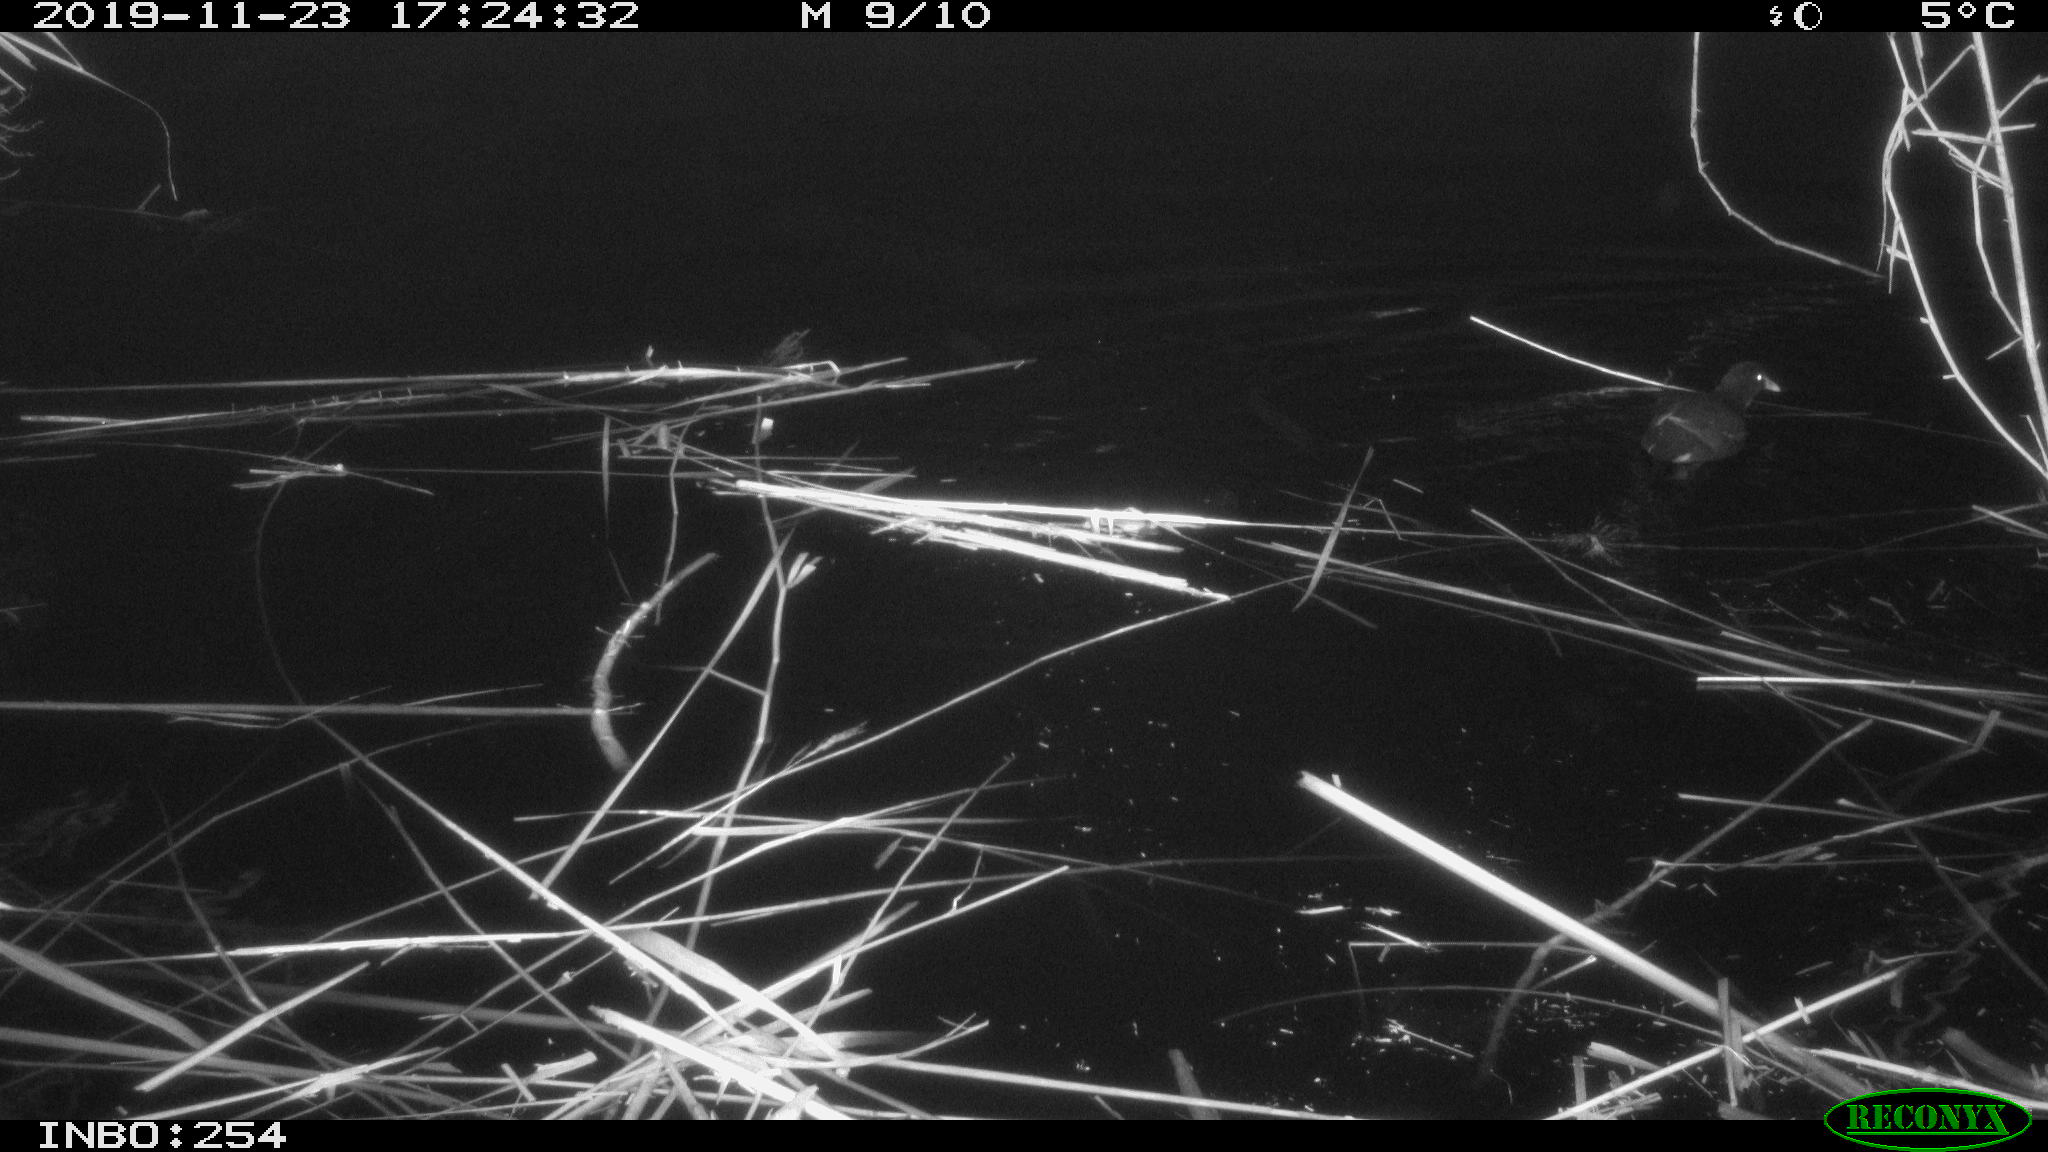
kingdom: Animalia
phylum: Chordata
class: Aves
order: Gruiformes
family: Rallidae
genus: Gallinula
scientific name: Gallinula chloropus
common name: Common moorhen
